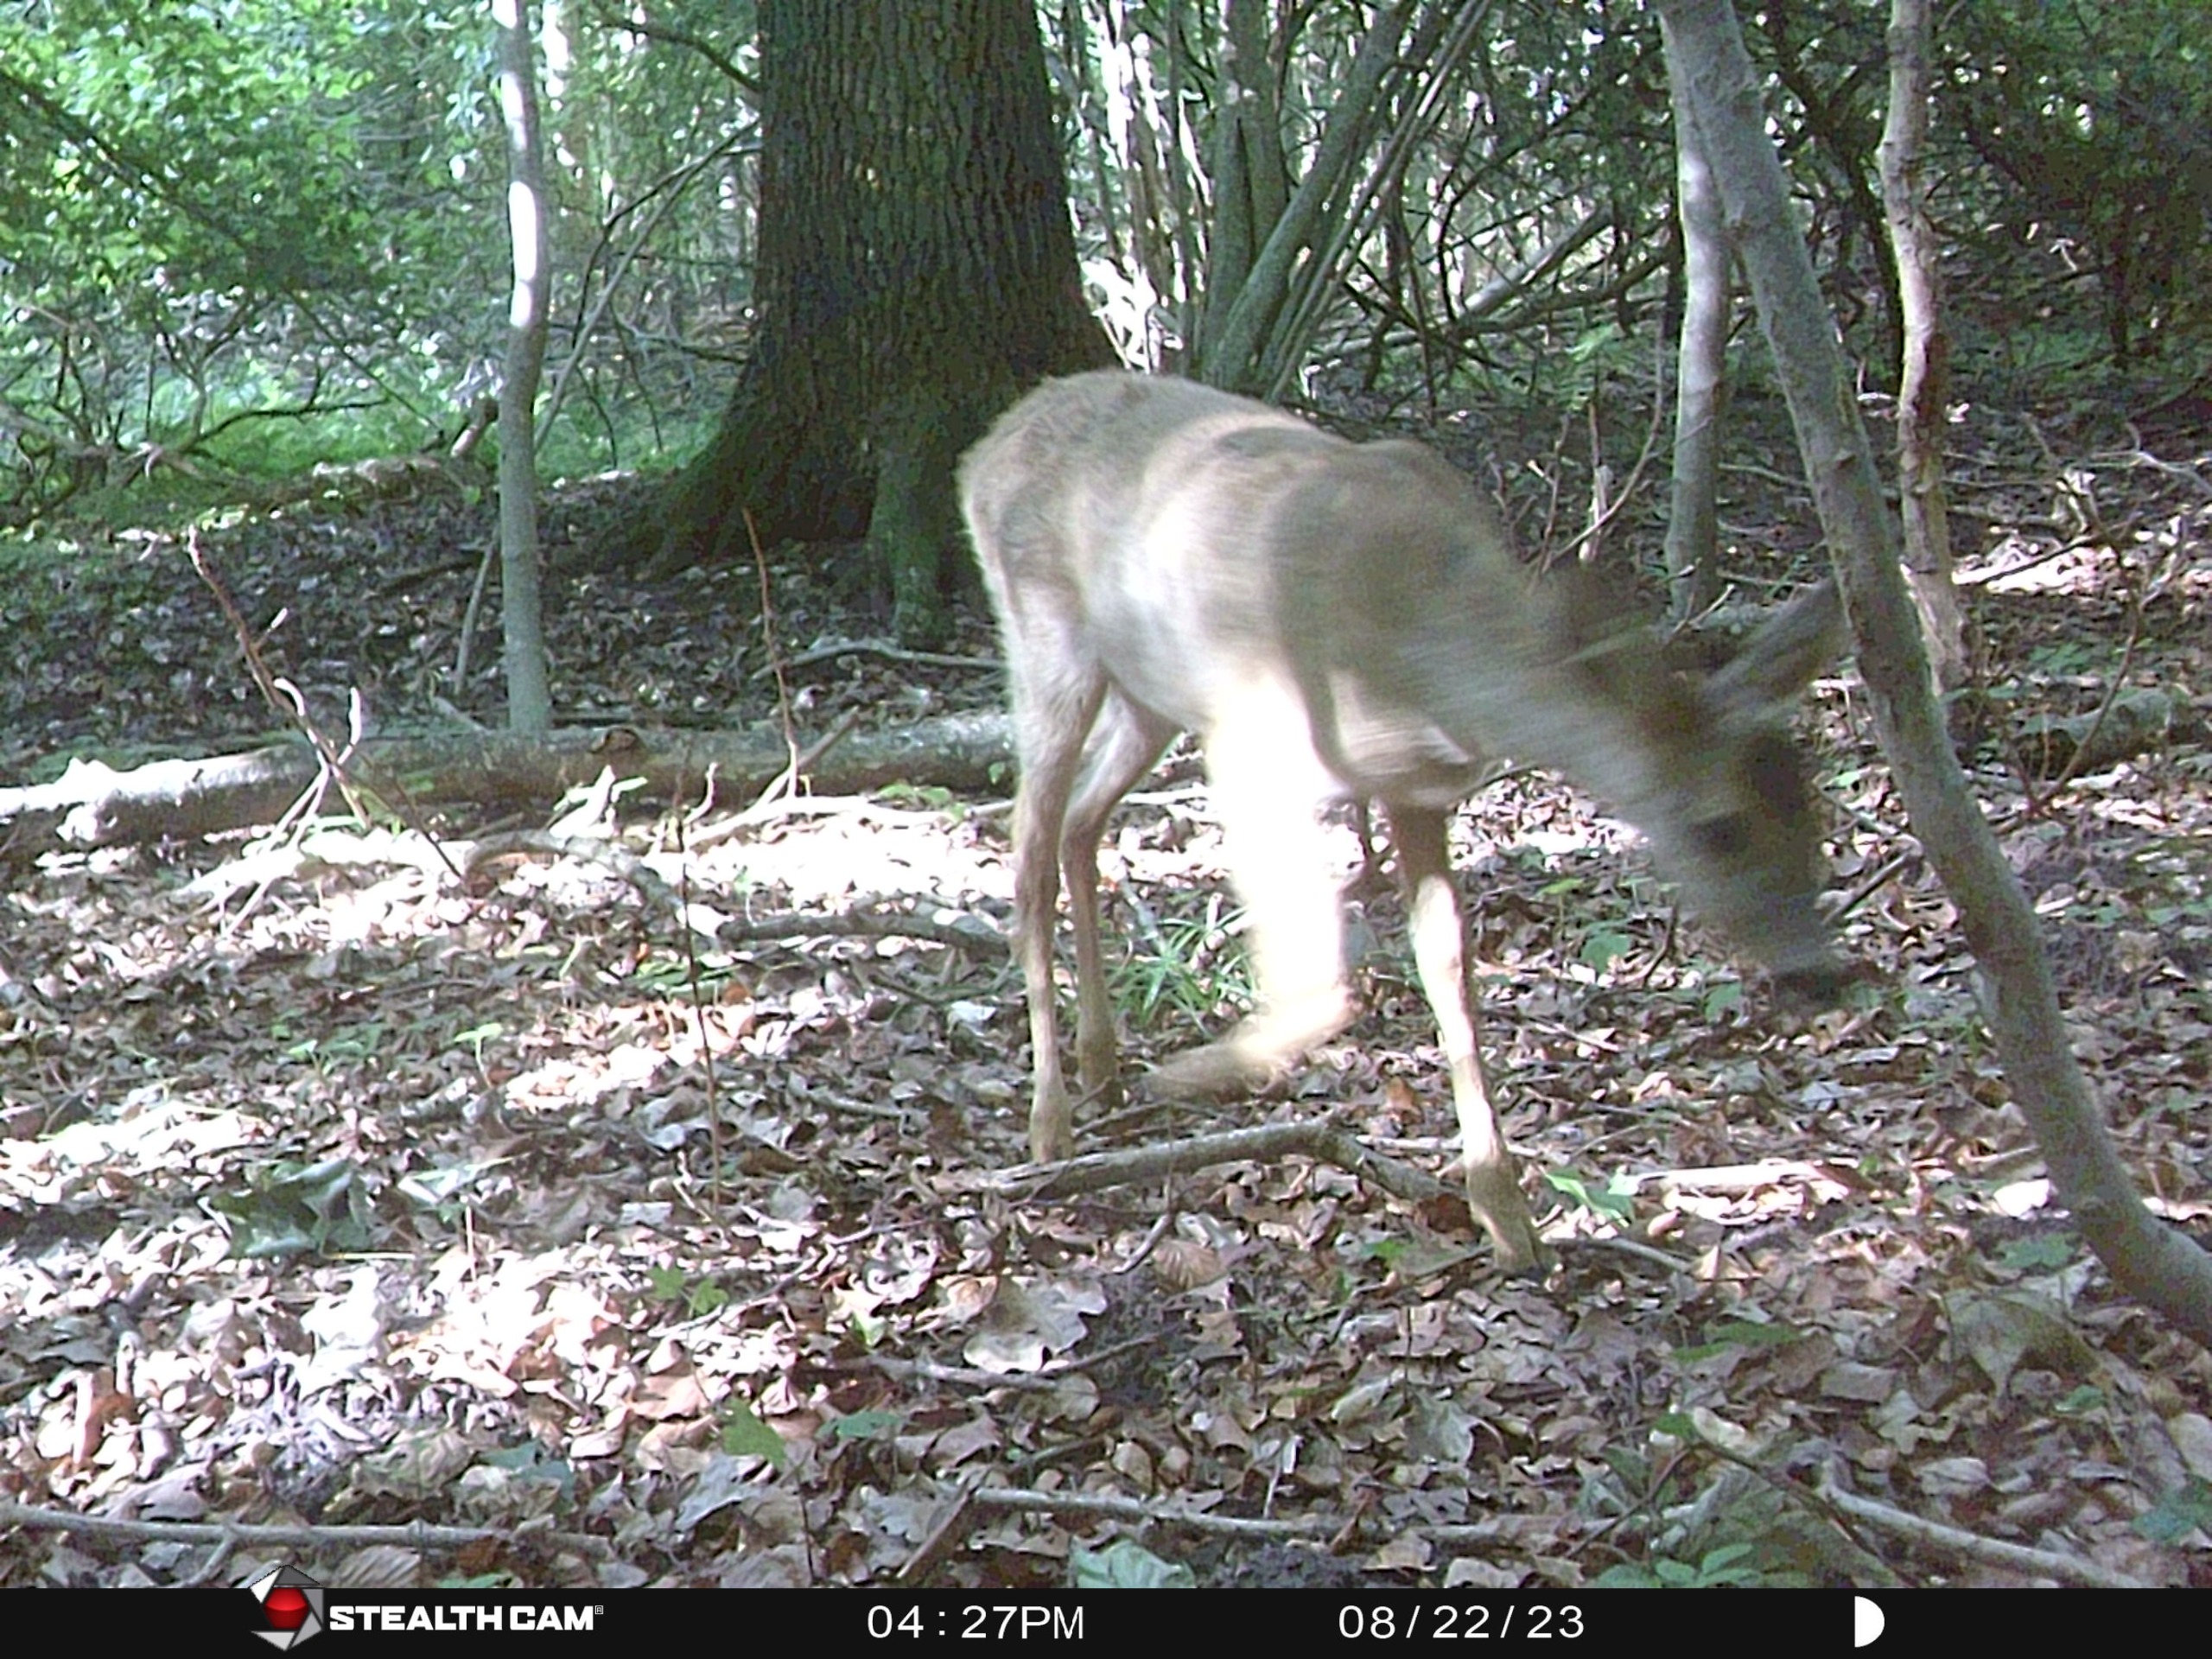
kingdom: Animalia
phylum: Chordata
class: Mammalia
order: Artiodactyla
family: Cervidae
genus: Capreolus
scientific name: Capreolus capreolus
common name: Rådyr
